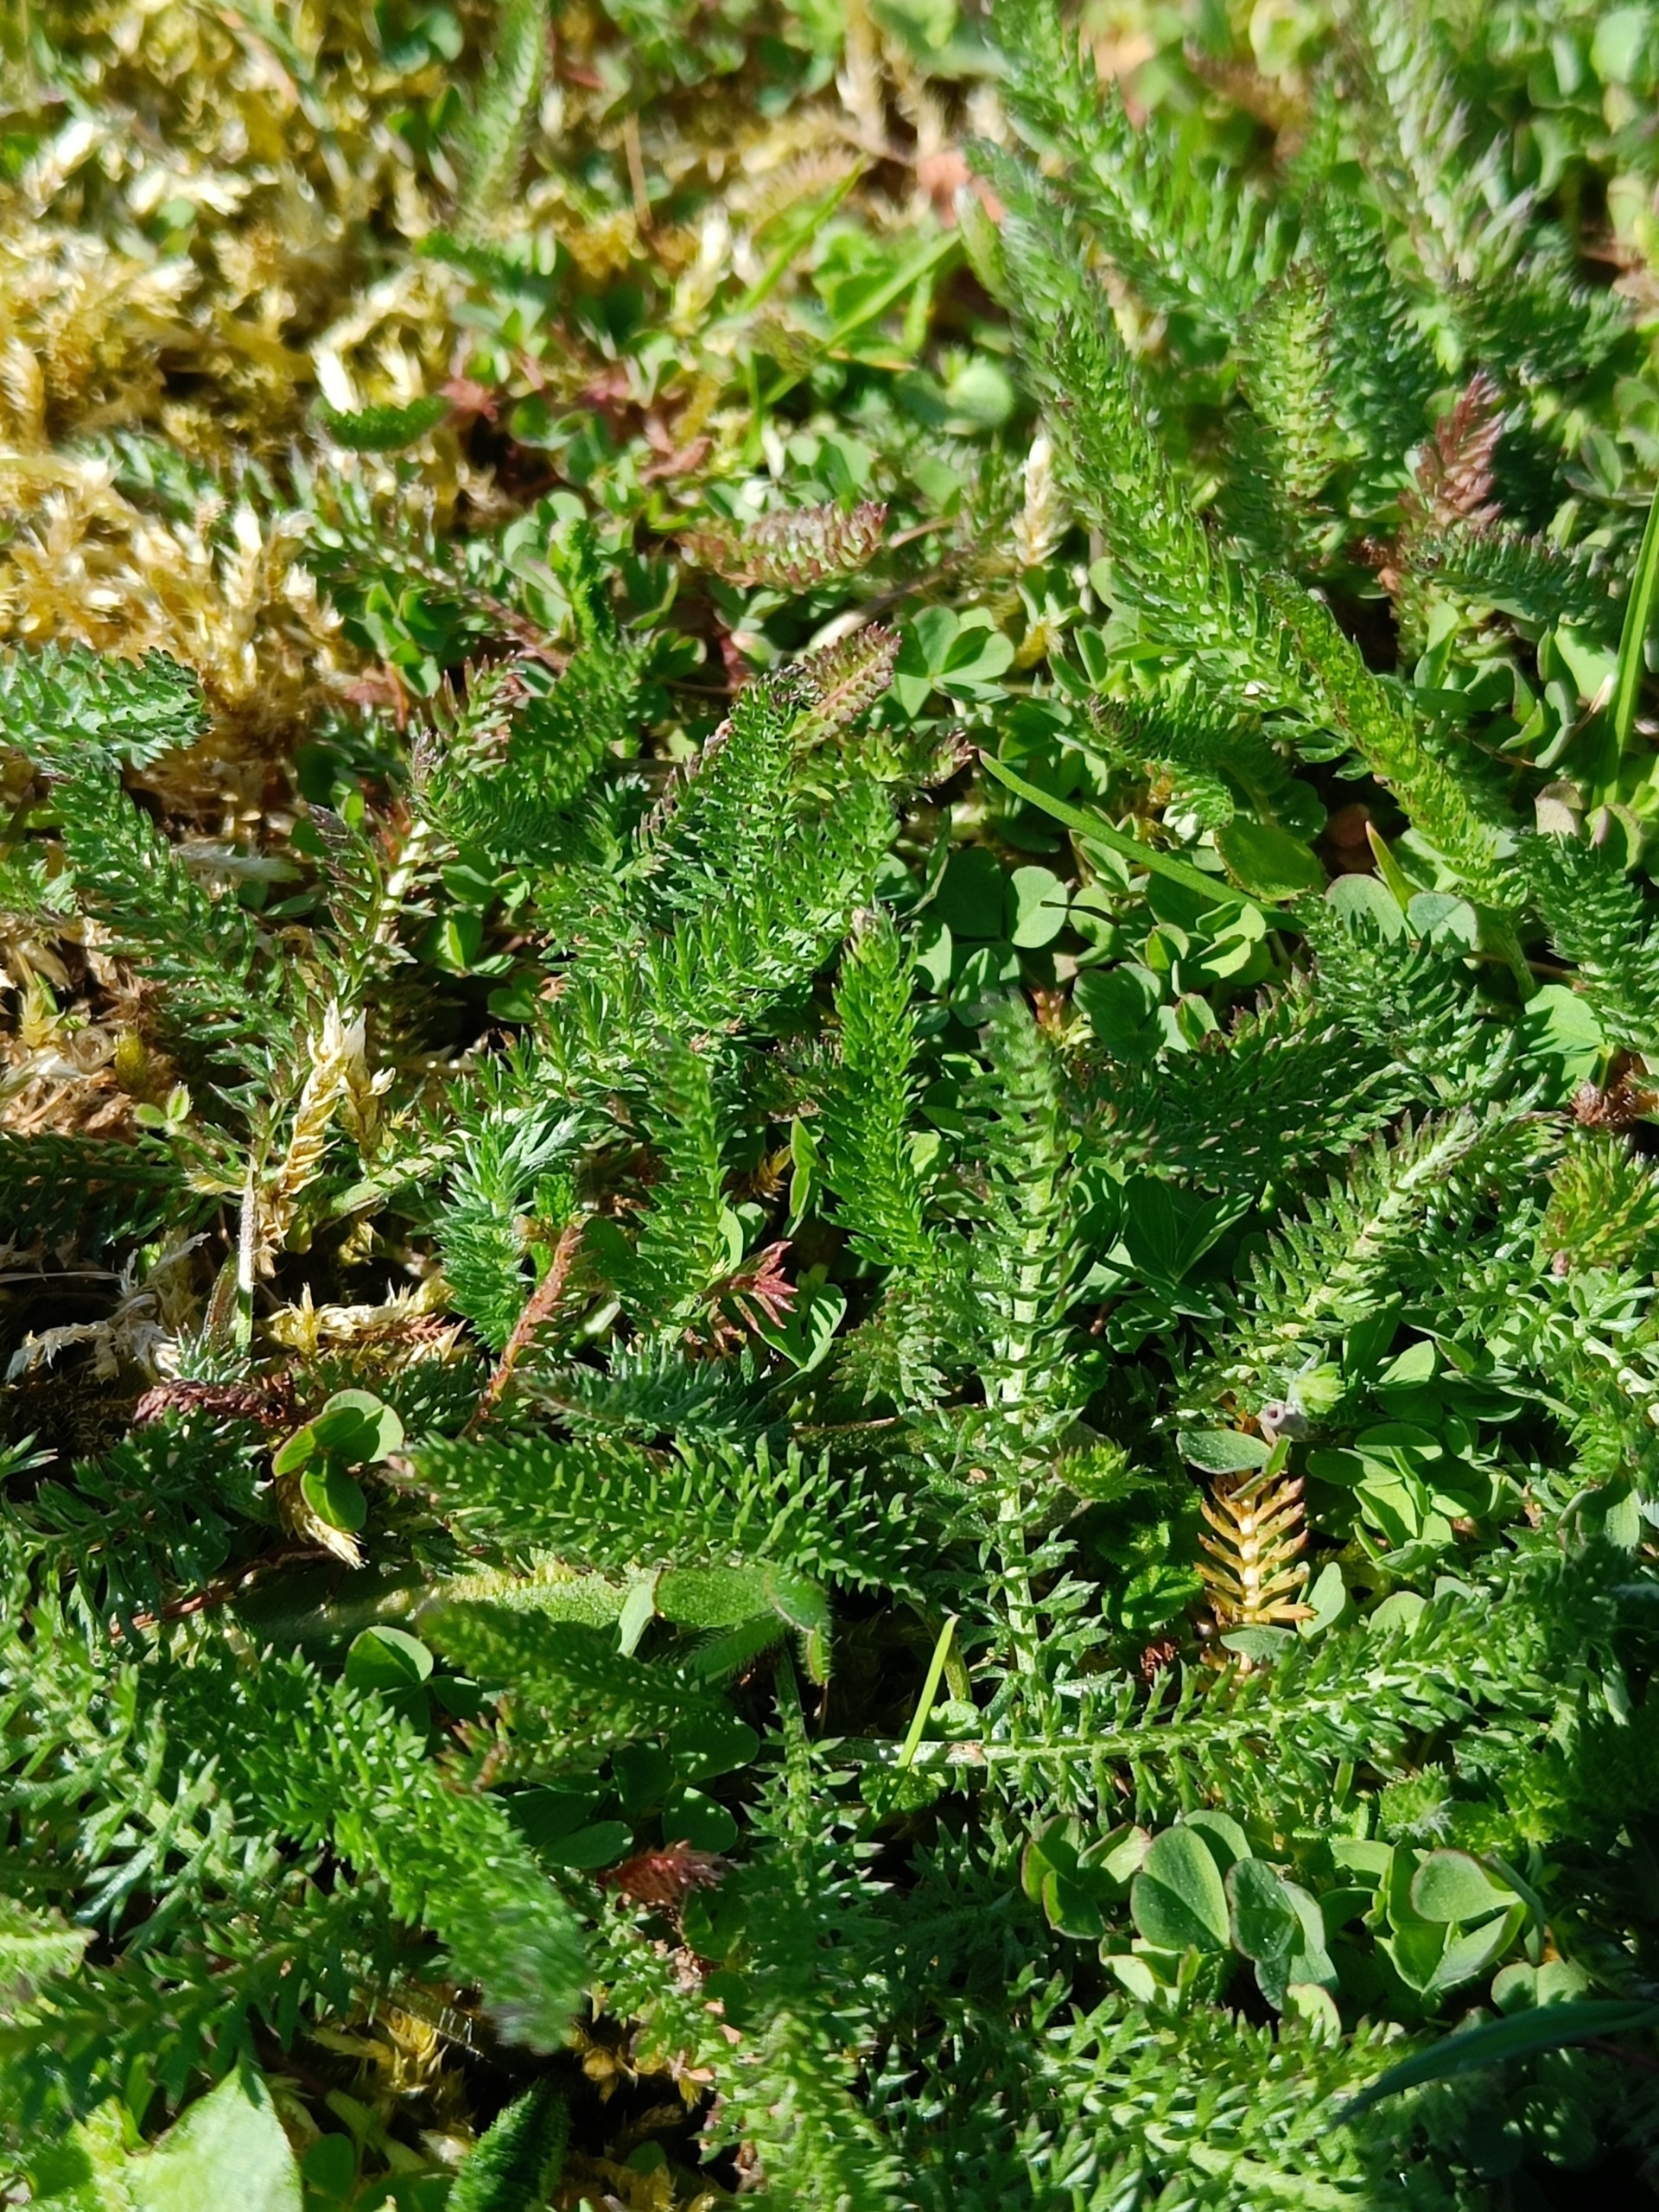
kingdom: Plantae
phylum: Tracheophyta
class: Magnoliopsida
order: Asterales
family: Asteraceae
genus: Achillea
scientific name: Achillea millefolium
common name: Almindelig røllike
